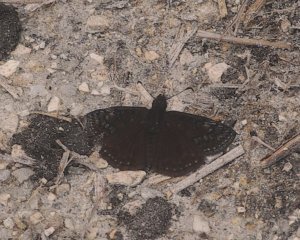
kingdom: Animalia
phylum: Arthropoda
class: Insecta
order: Lepidoptera
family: Hesperiidae
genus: Erynnis
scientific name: Erynnis brizo
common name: Sleepy Duskywing
